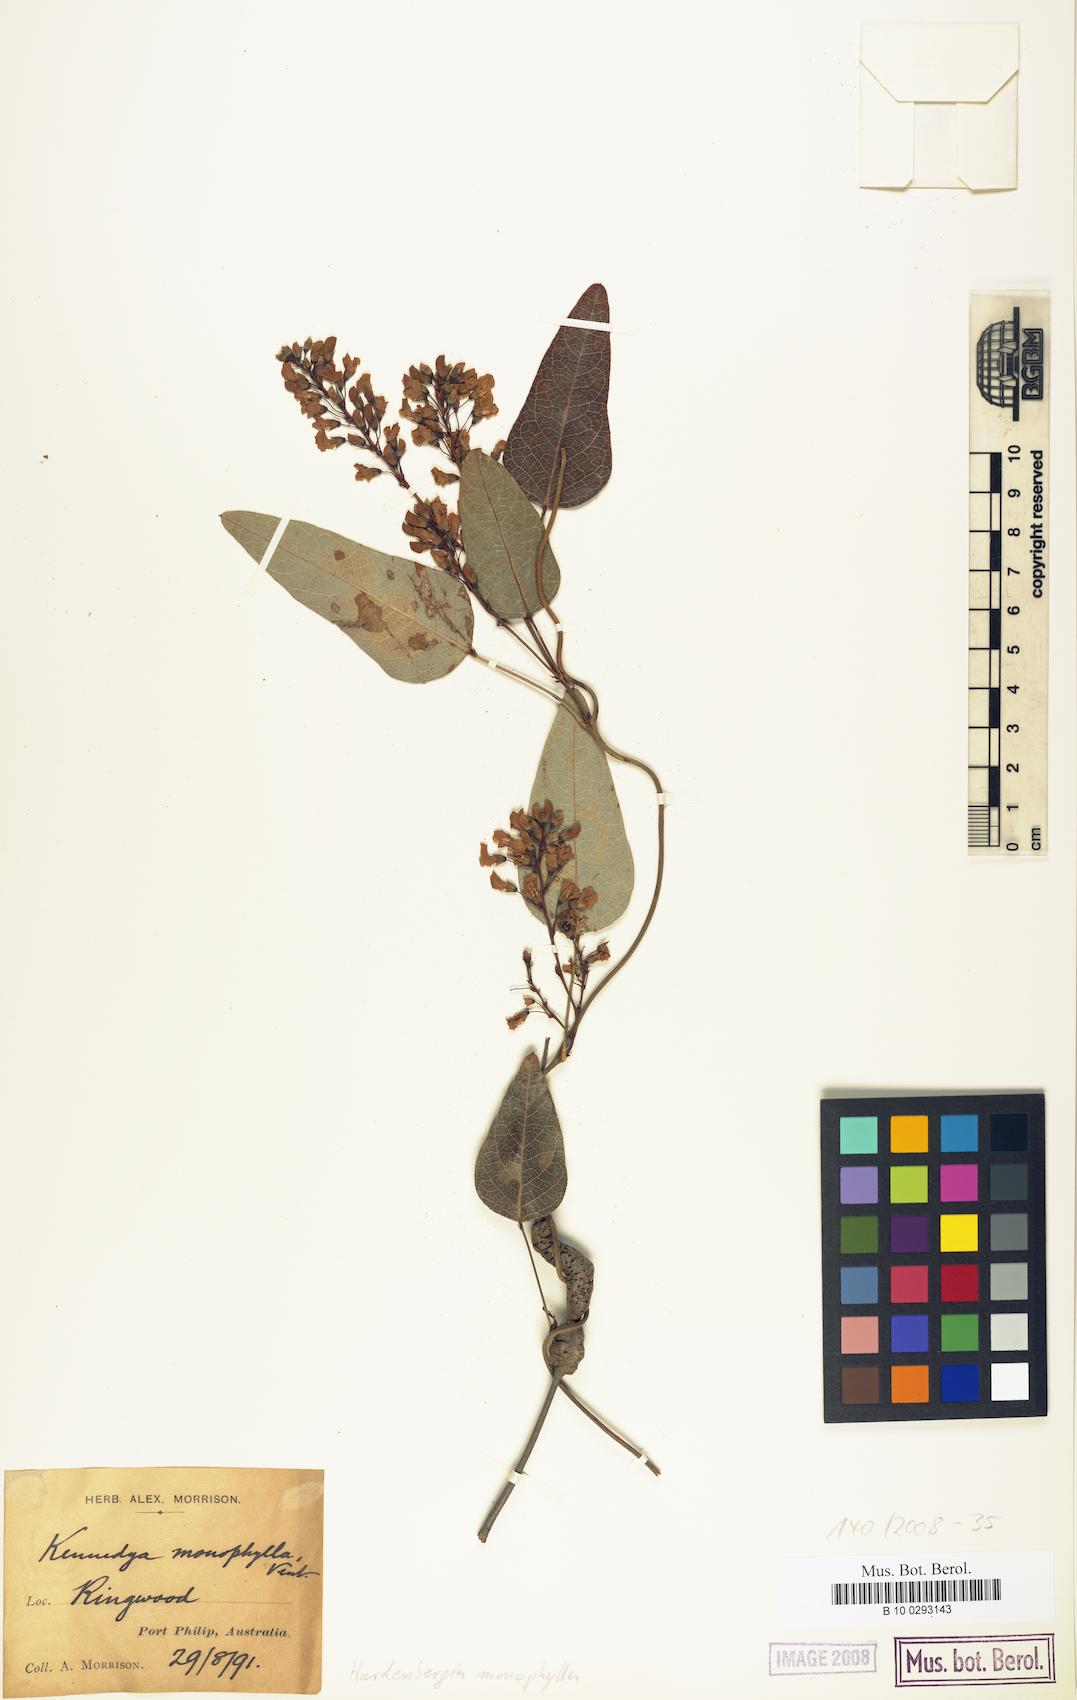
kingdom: Plantae
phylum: Tracheophyta
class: Magnoliopsida
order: Fabales
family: Fabaceae
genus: Hardenbergia
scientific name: Hardenbergia violacea
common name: Coral-pea
